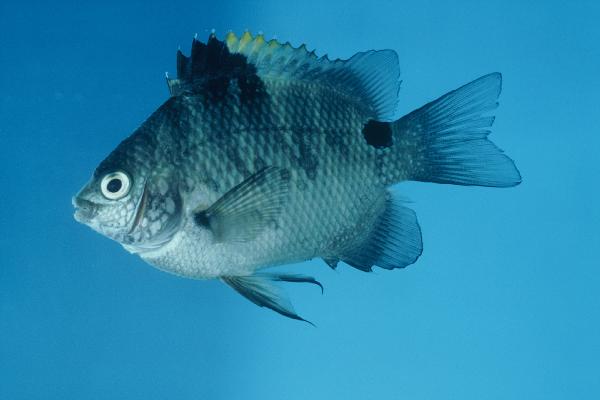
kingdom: Animalia
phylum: Chordata
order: Perciformes
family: Pomacentridae
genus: Abudefduf
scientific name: Abudefduf sordidus
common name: Blackspot sergeant
